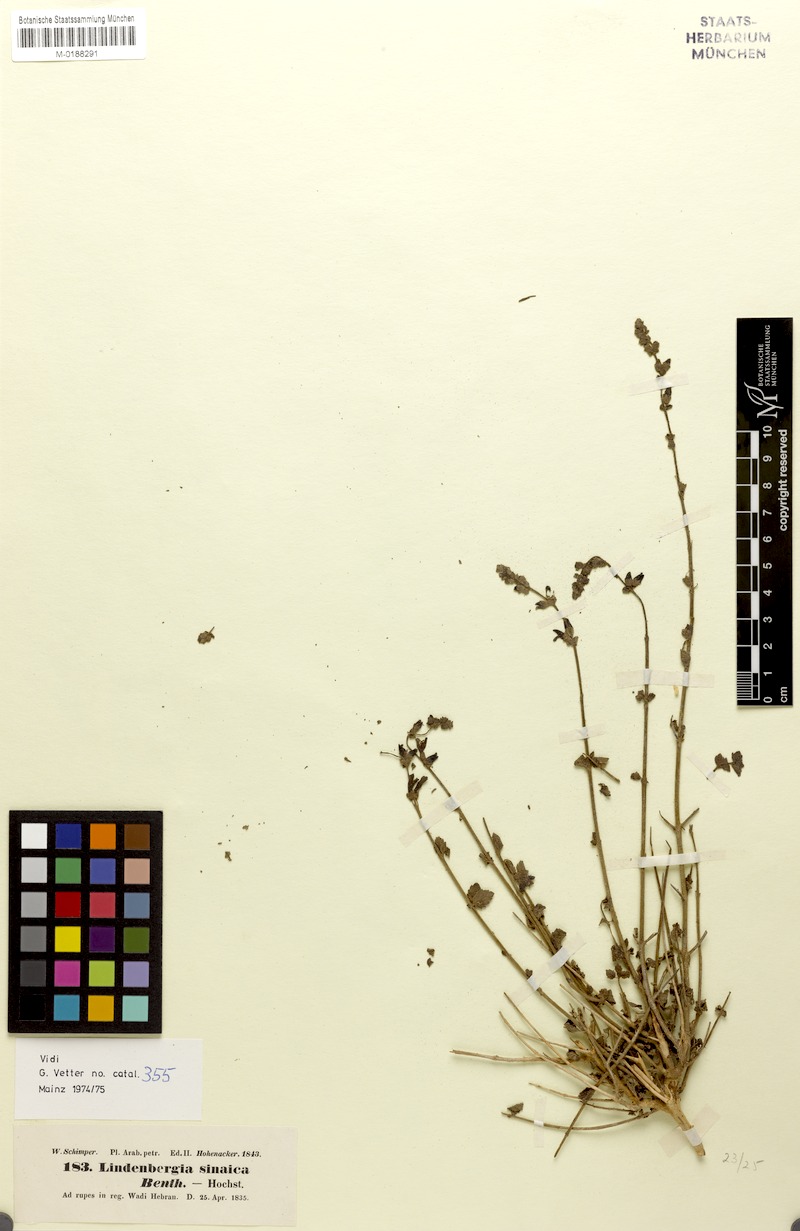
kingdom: Plantae
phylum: Tracheophyta
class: Magnoliopsida
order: Lamiales
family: Orobanchaceae
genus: Lindenbergia
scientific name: Lindenbergia indica
